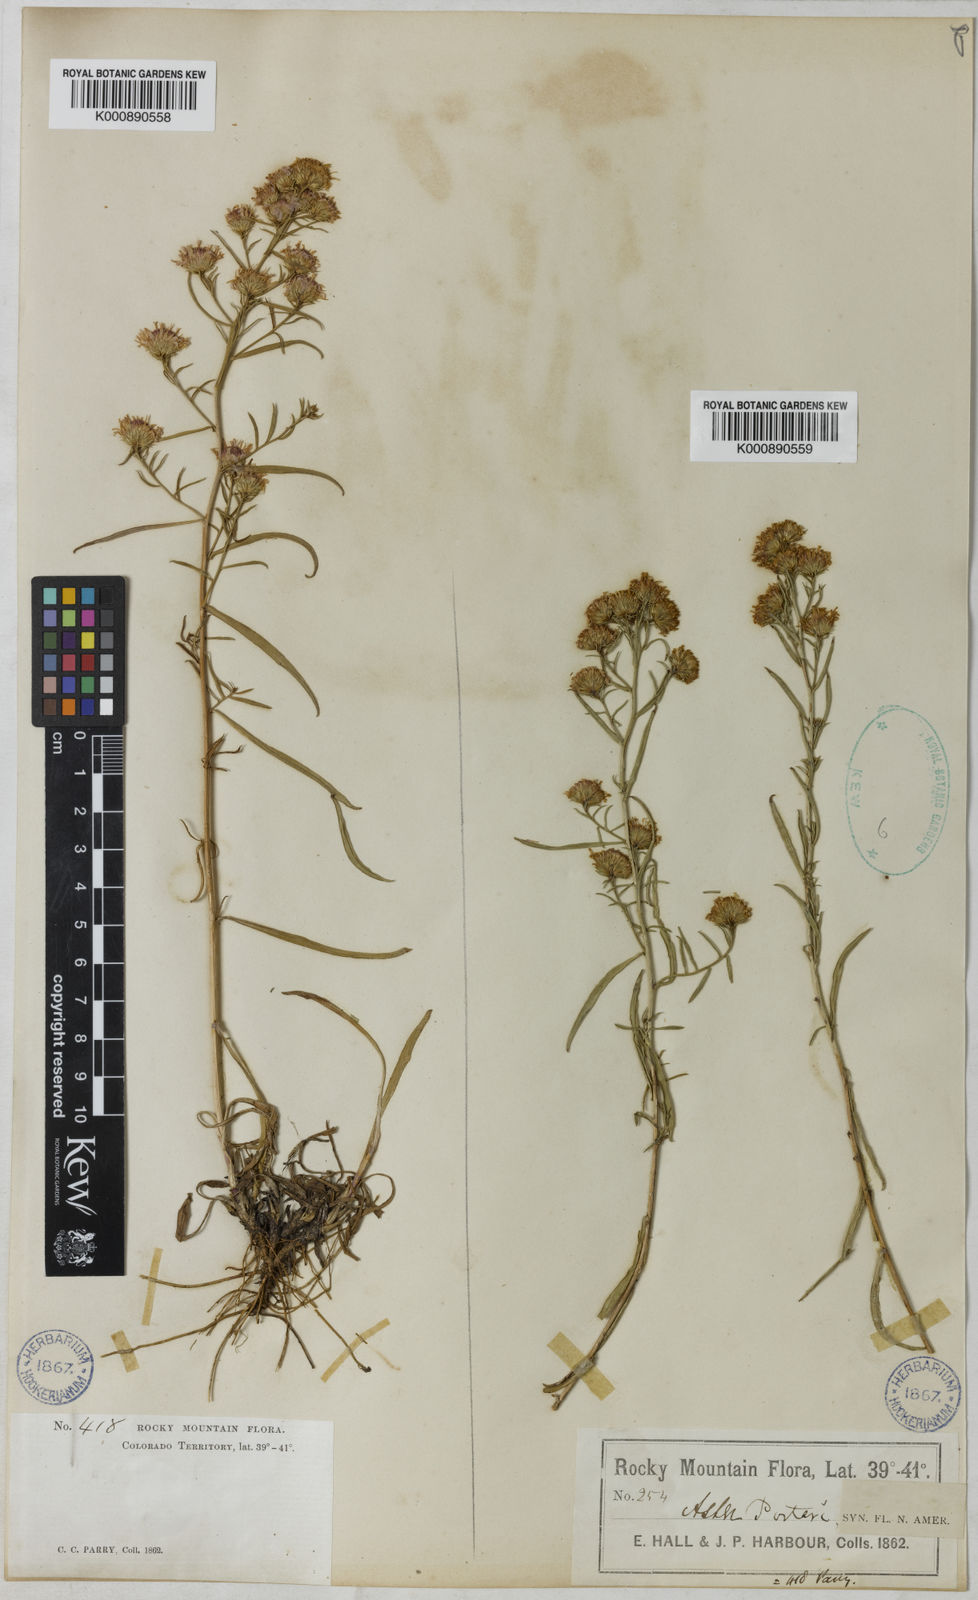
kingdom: Plantae
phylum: Tracheophyta
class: Magnoliopsida
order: Asterales
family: Asteraceae
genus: Symphyotrichum
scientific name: Symphyotrichum porteri
